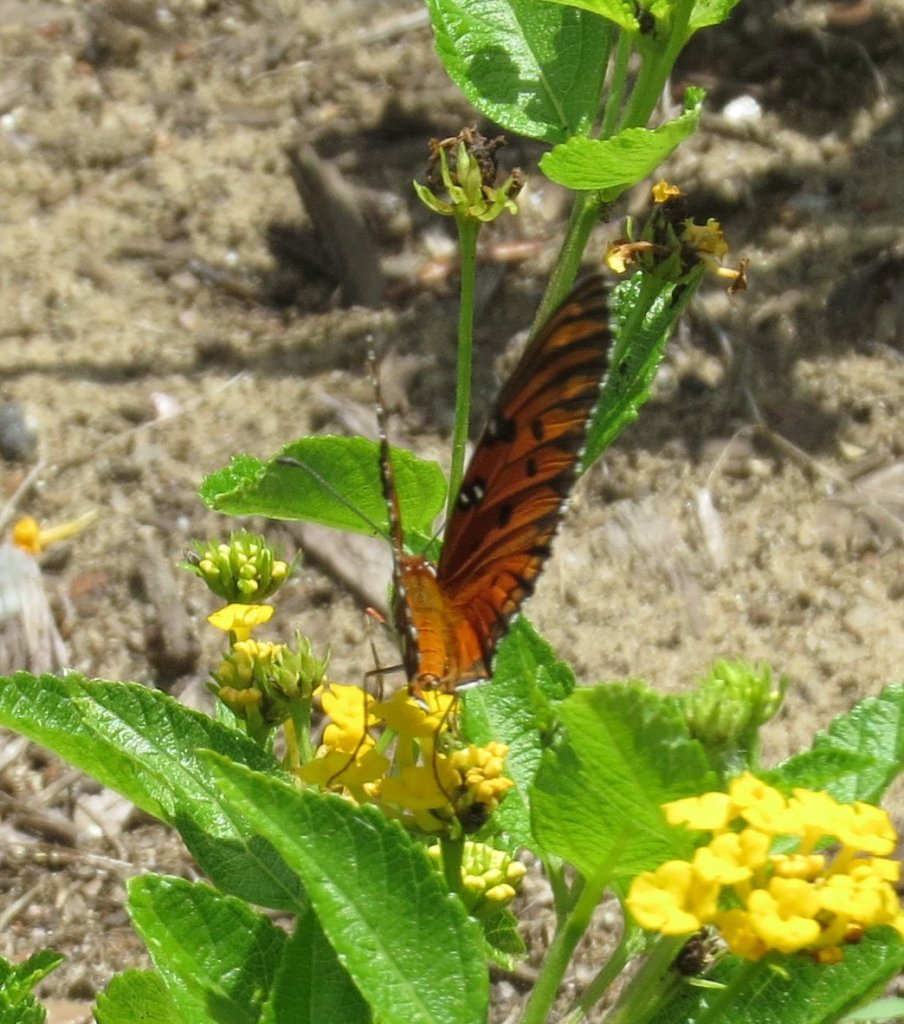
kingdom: Animalia
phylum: Arthropoda
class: Insecta
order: Lepidoptera
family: Nymphalidae
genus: Dione
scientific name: Dione vanillae
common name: Gulf Fritillary
